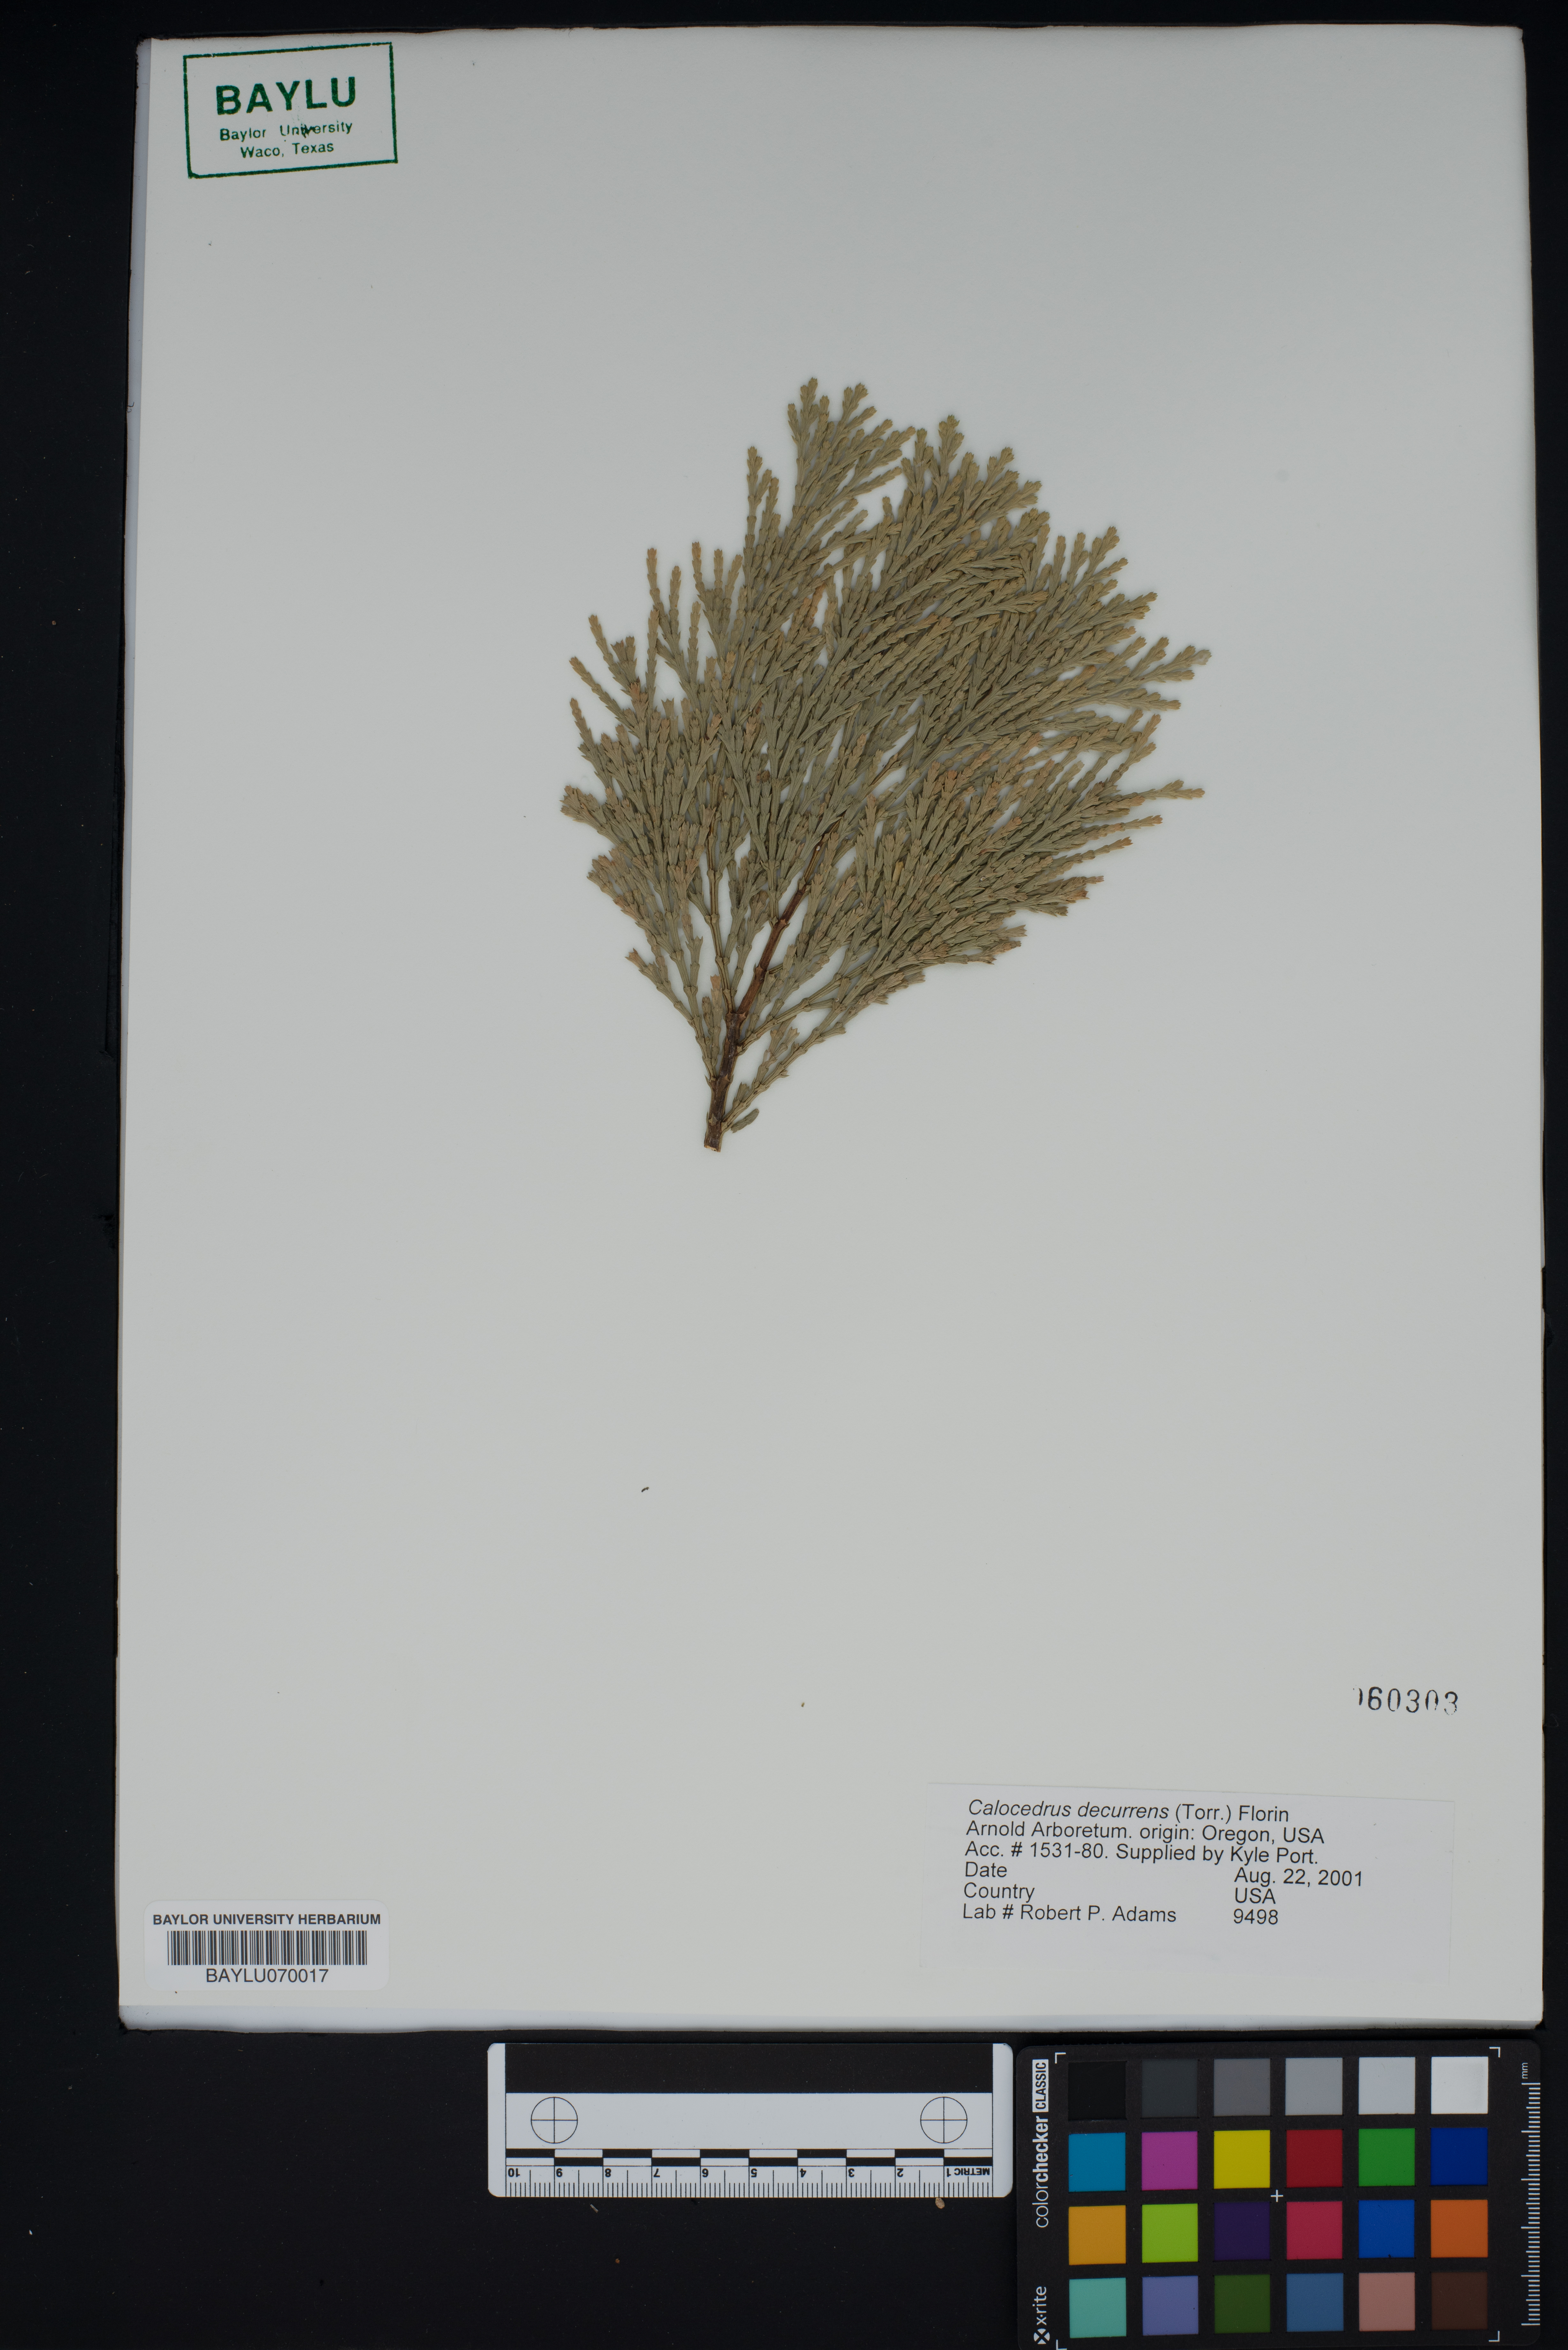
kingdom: Plantae
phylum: Tracheophyta
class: Pinopsida
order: Pinales
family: Cupressaceae
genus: Calocedrus
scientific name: Calocedrus decurrens
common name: Californian incense-cedar
